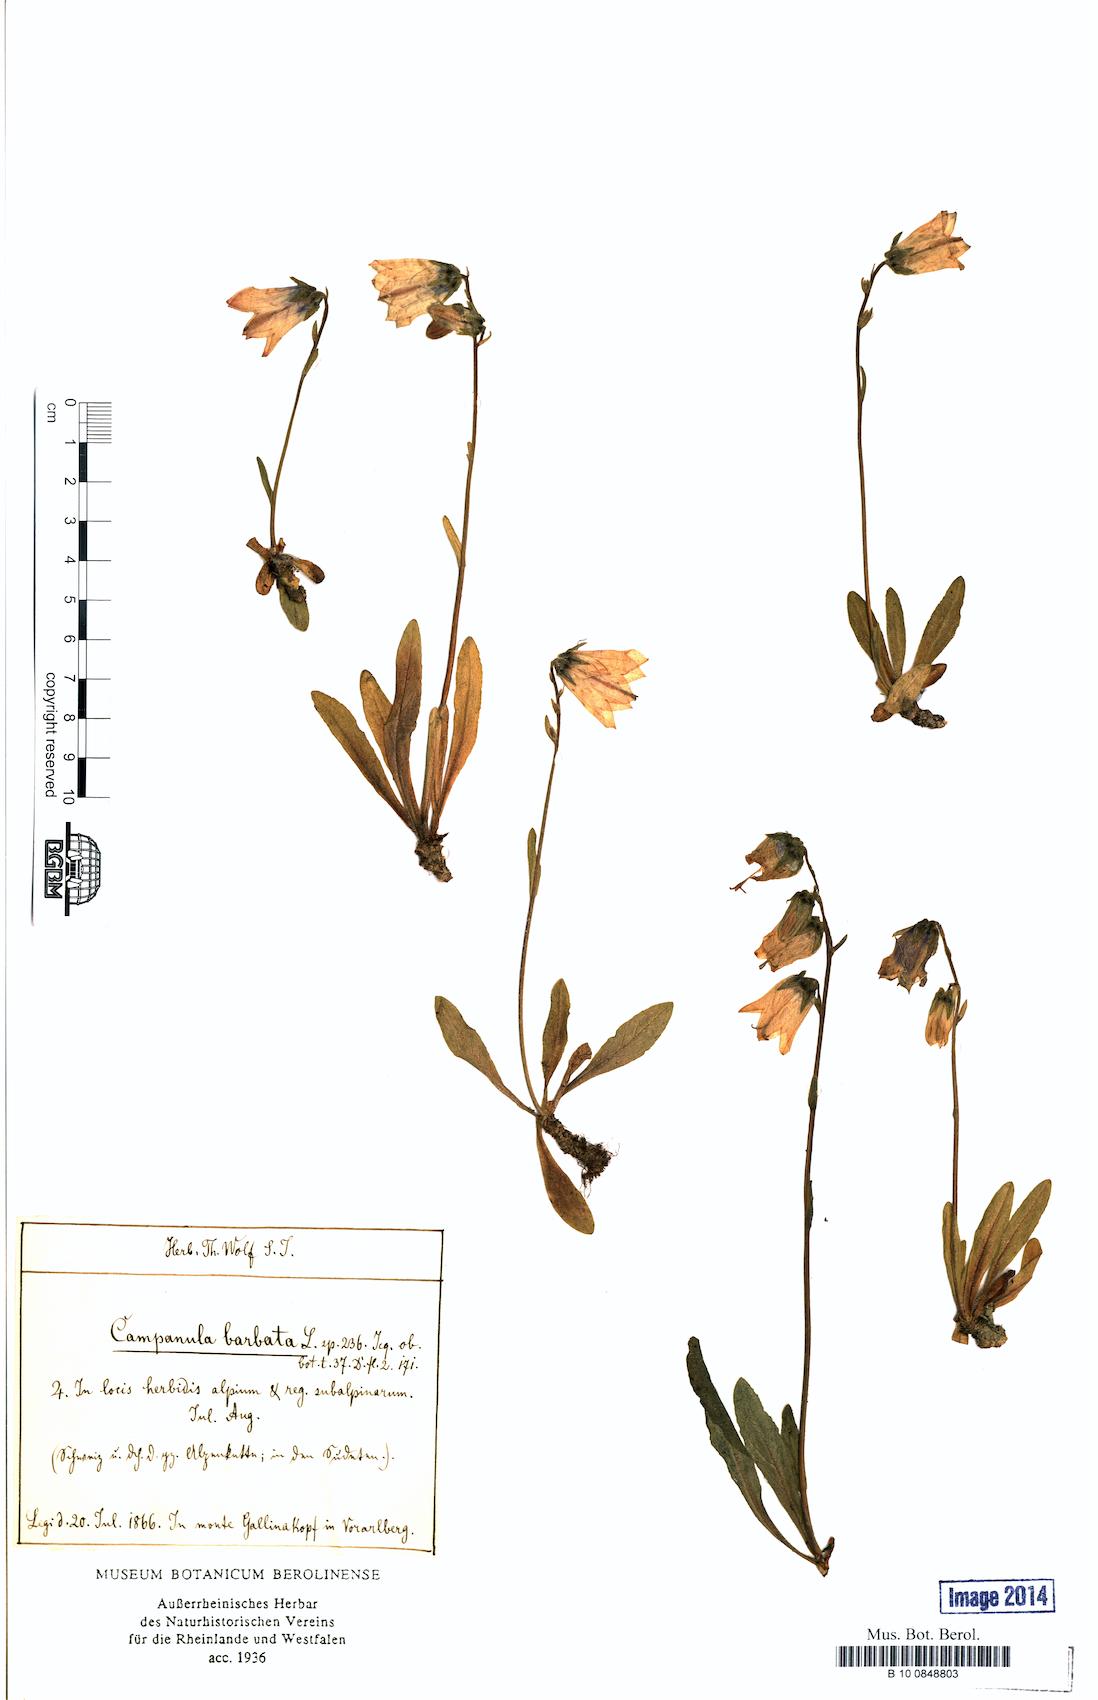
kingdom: Plantae
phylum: Tracheophyta
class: Magnoliopsida
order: Asterales
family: Campanulaceae
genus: Campanula
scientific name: Campanula barbata
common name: Bearded bellflower
